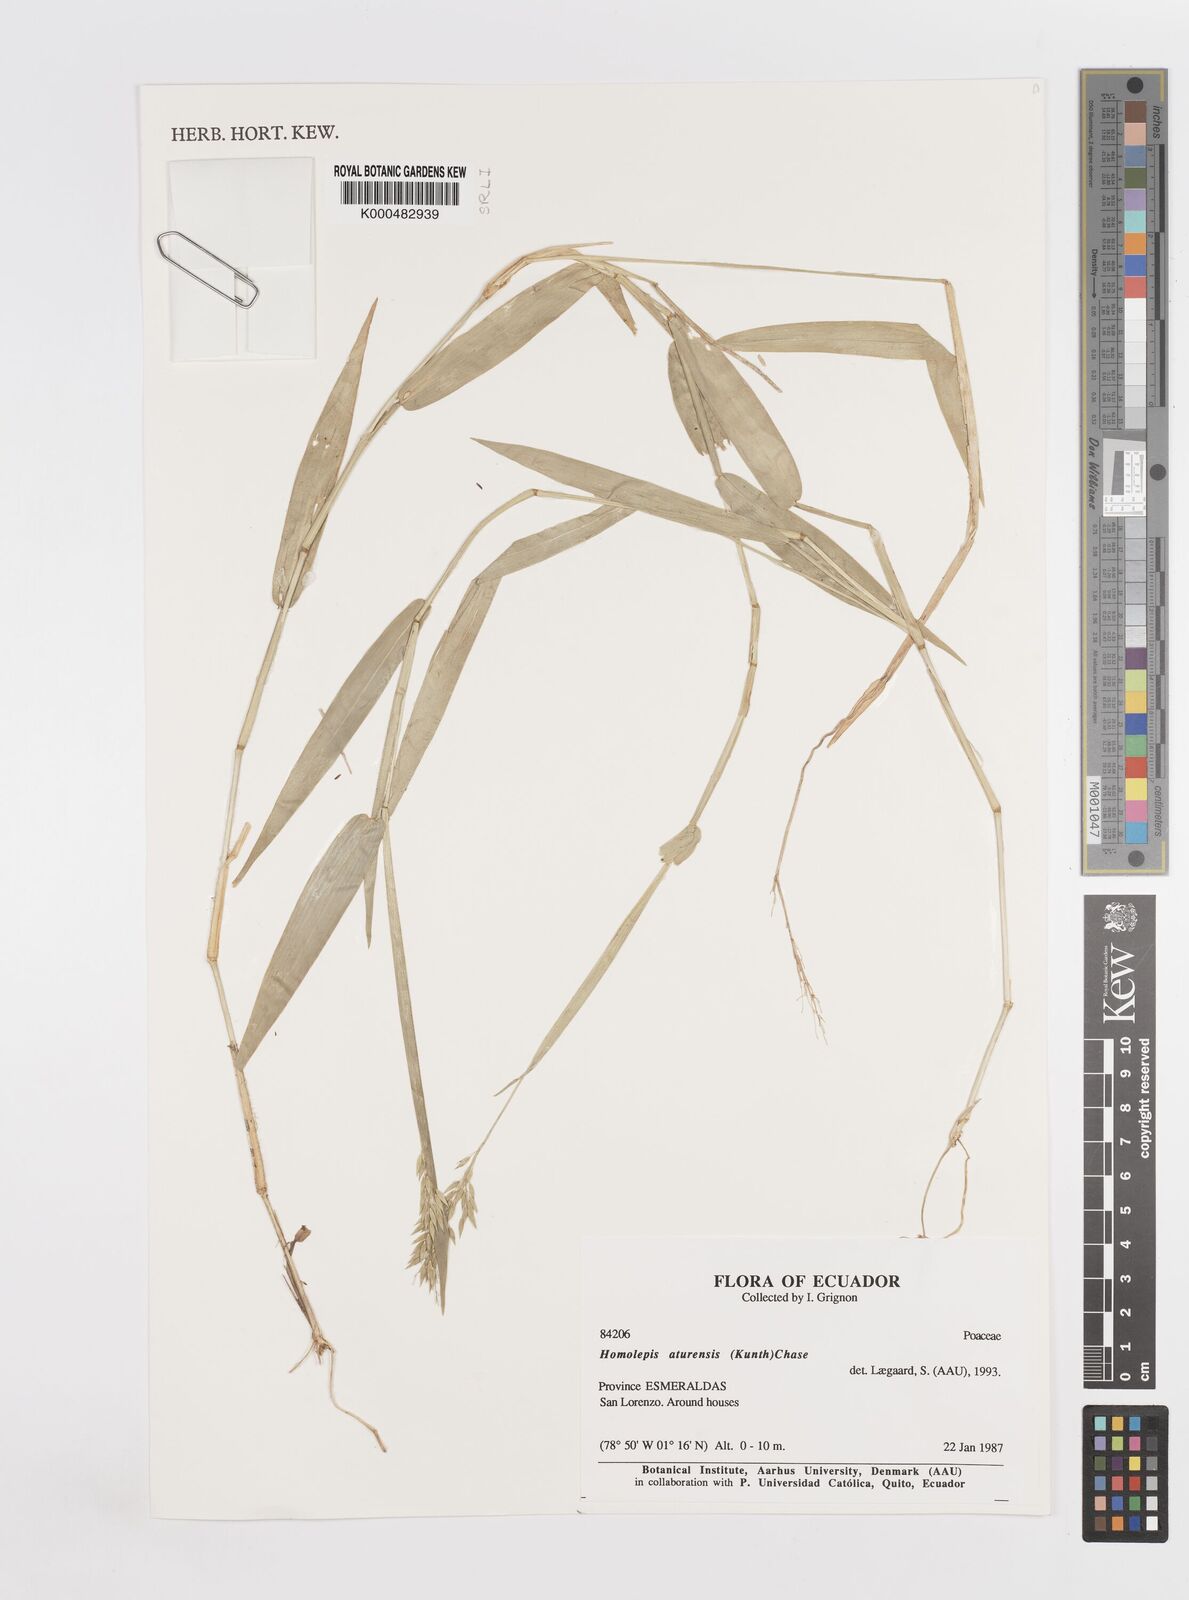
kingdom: Plantae
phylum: Tracheophyta
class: Liliopsida
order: Poales
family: Poaceae
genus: Homolepis
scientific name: Homolepis aturensis
